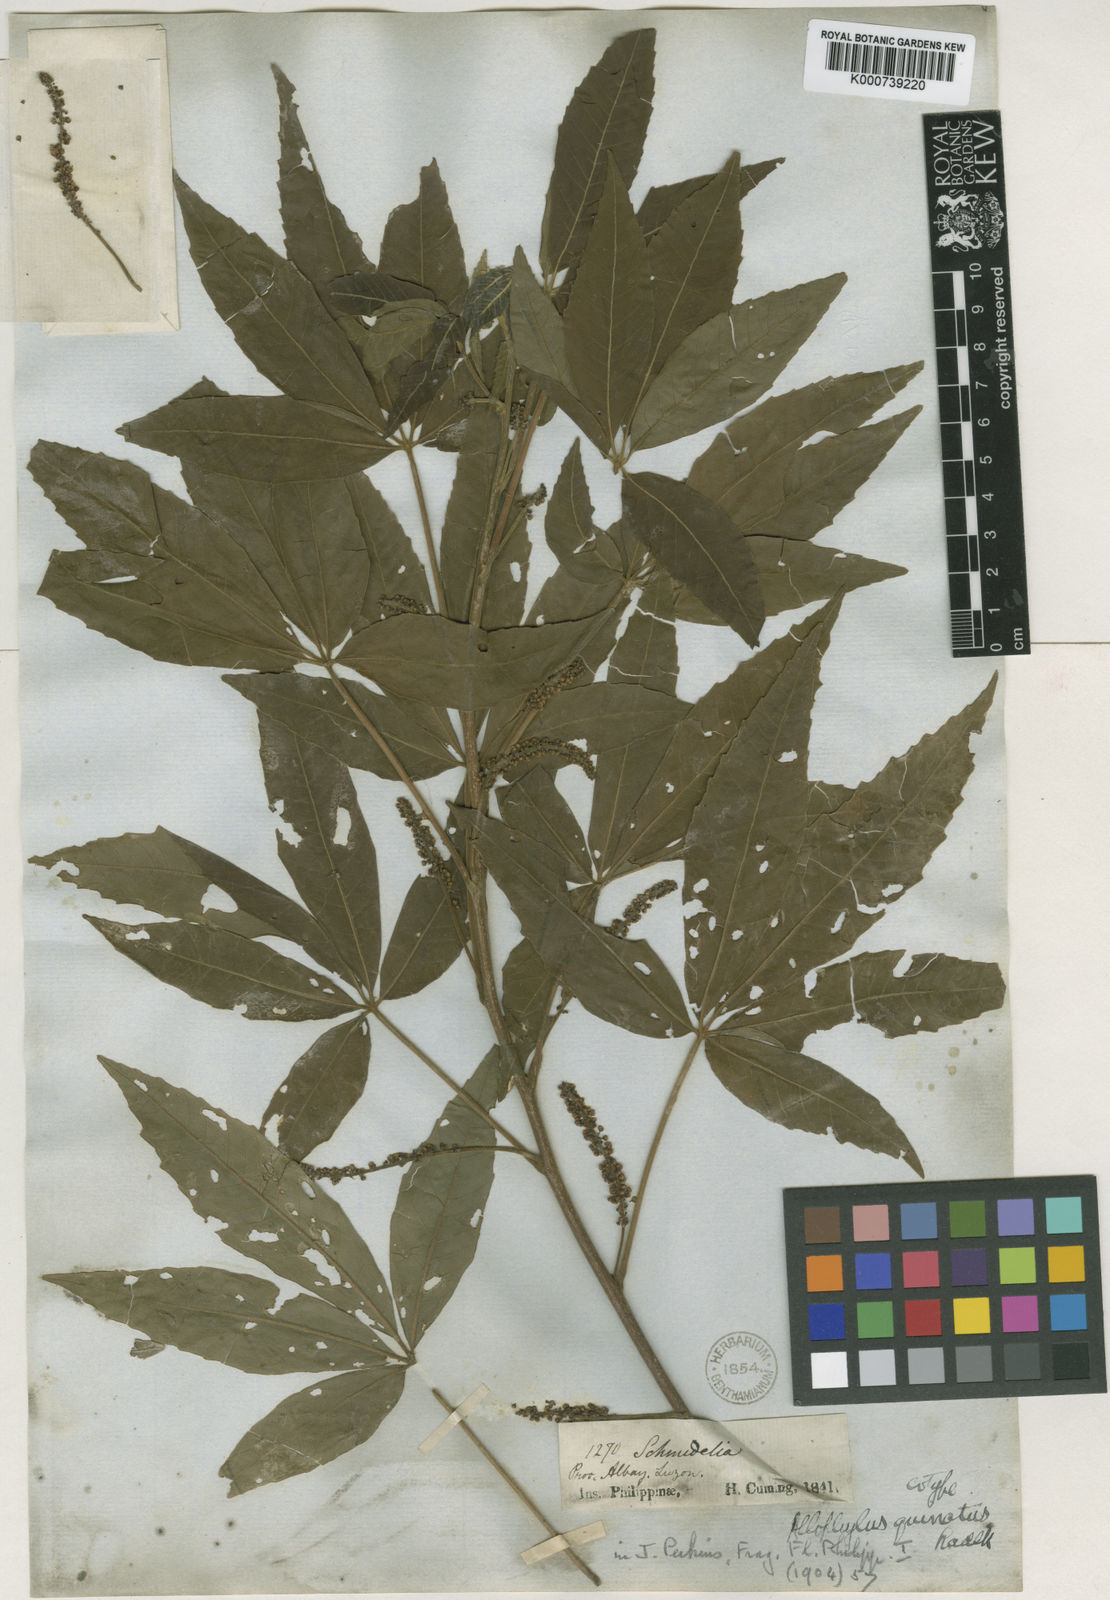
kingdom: Plantae
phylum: Tracheophyta
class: Magnoliopsida
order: Sapindales
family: Sapindaceae
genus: Allophylus
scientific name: Allophylus quinatus
